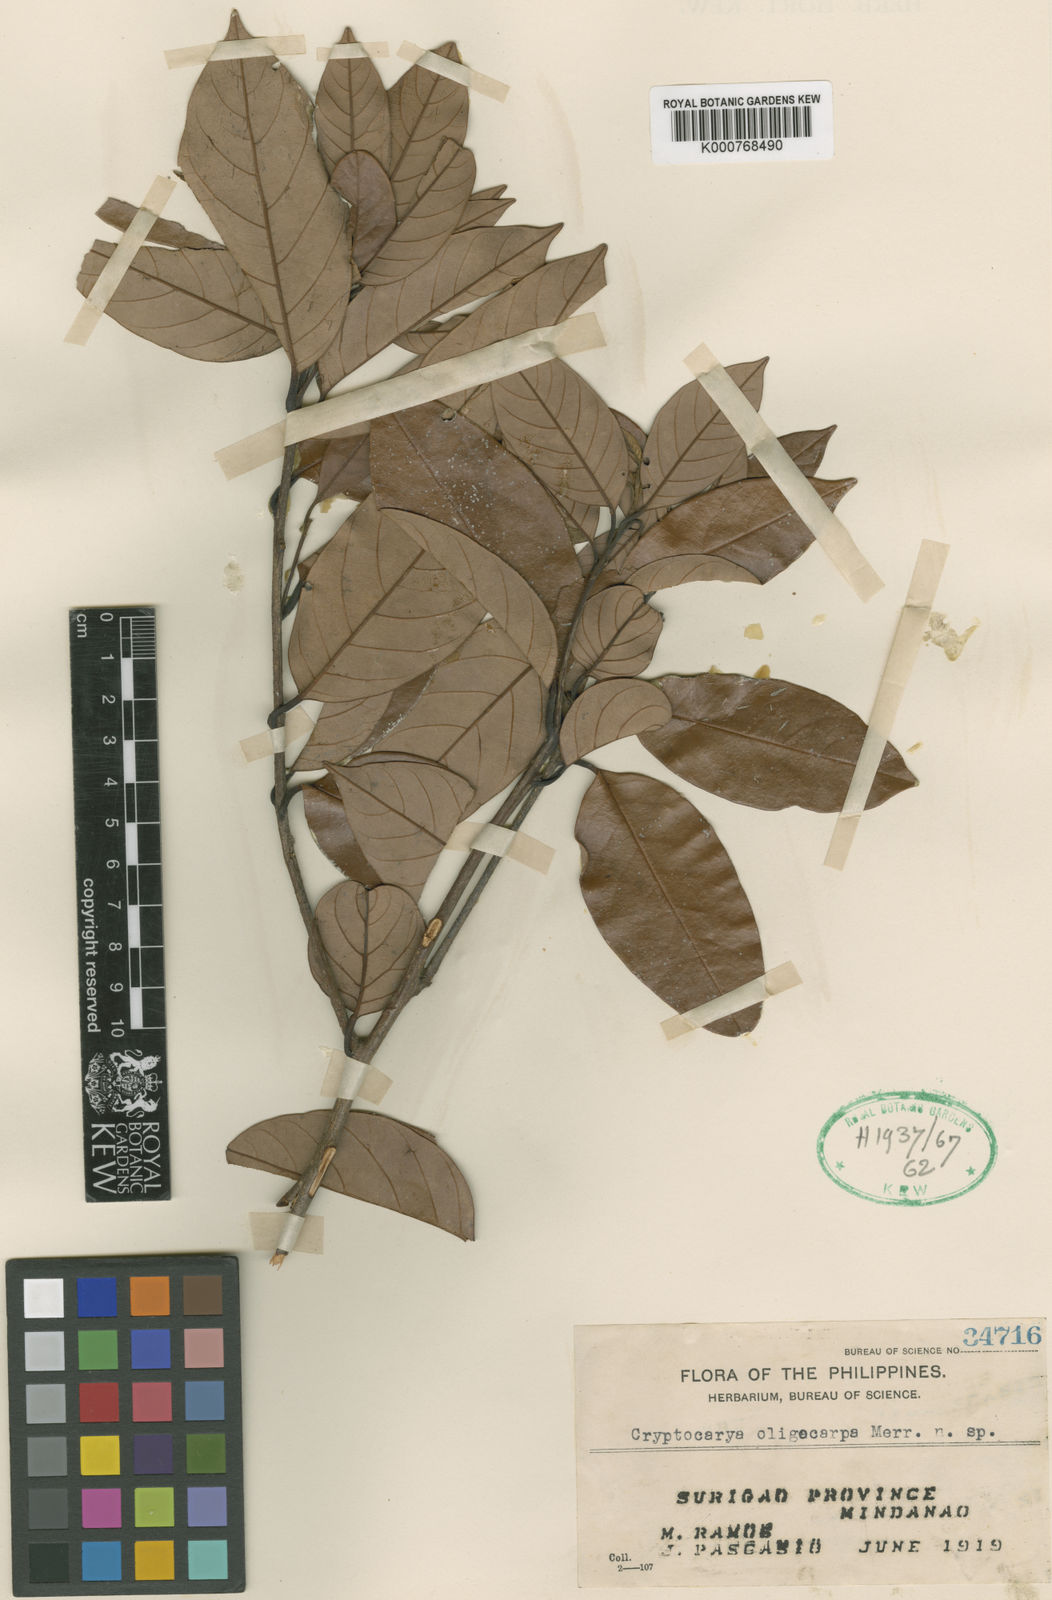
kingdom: Plantae
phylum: Tracheophyta
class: Magnoliopsida
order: Laurales
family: Lauraceae
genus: Cryptocarya
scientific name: Cryptocarya oligocarpa
